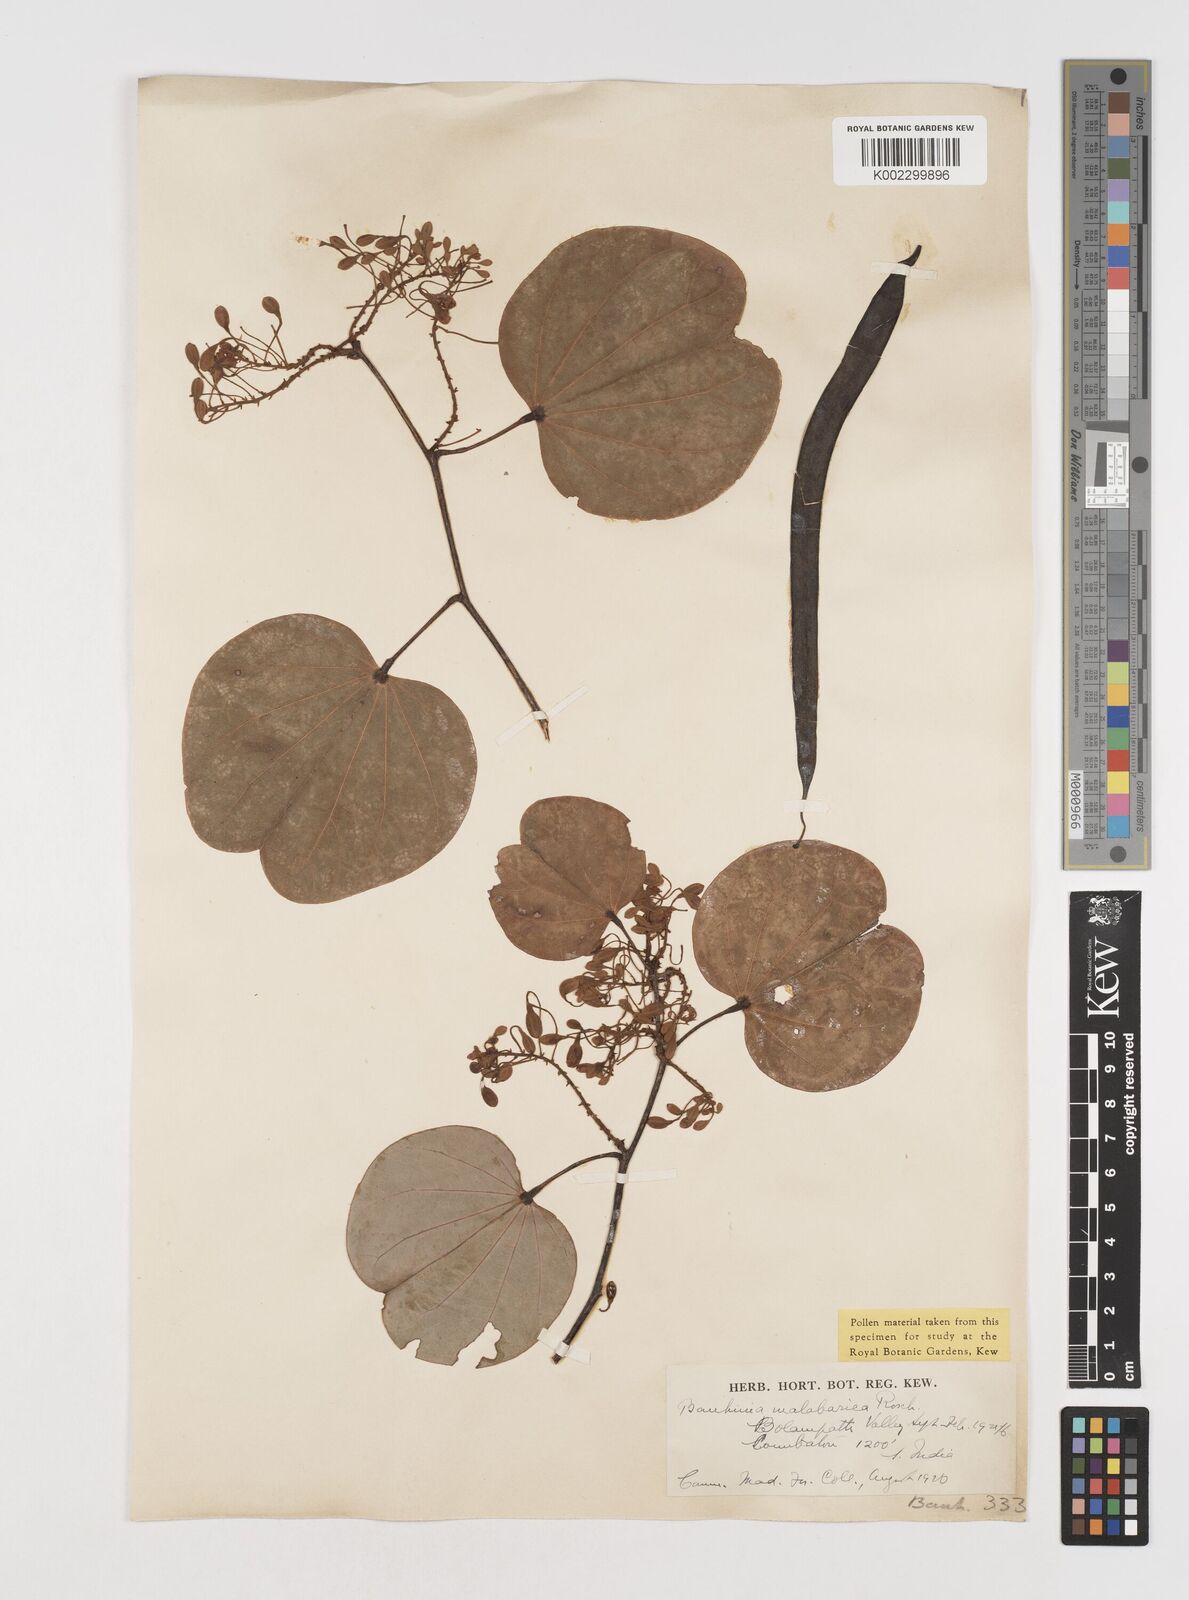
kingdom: Plantae
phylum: Tracheophyta
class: Magnoliopsida
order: Fabales
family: Fabaceae
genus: Piliostigma
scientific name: Piliostigma malabaricum
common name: Malabar bauhinia
